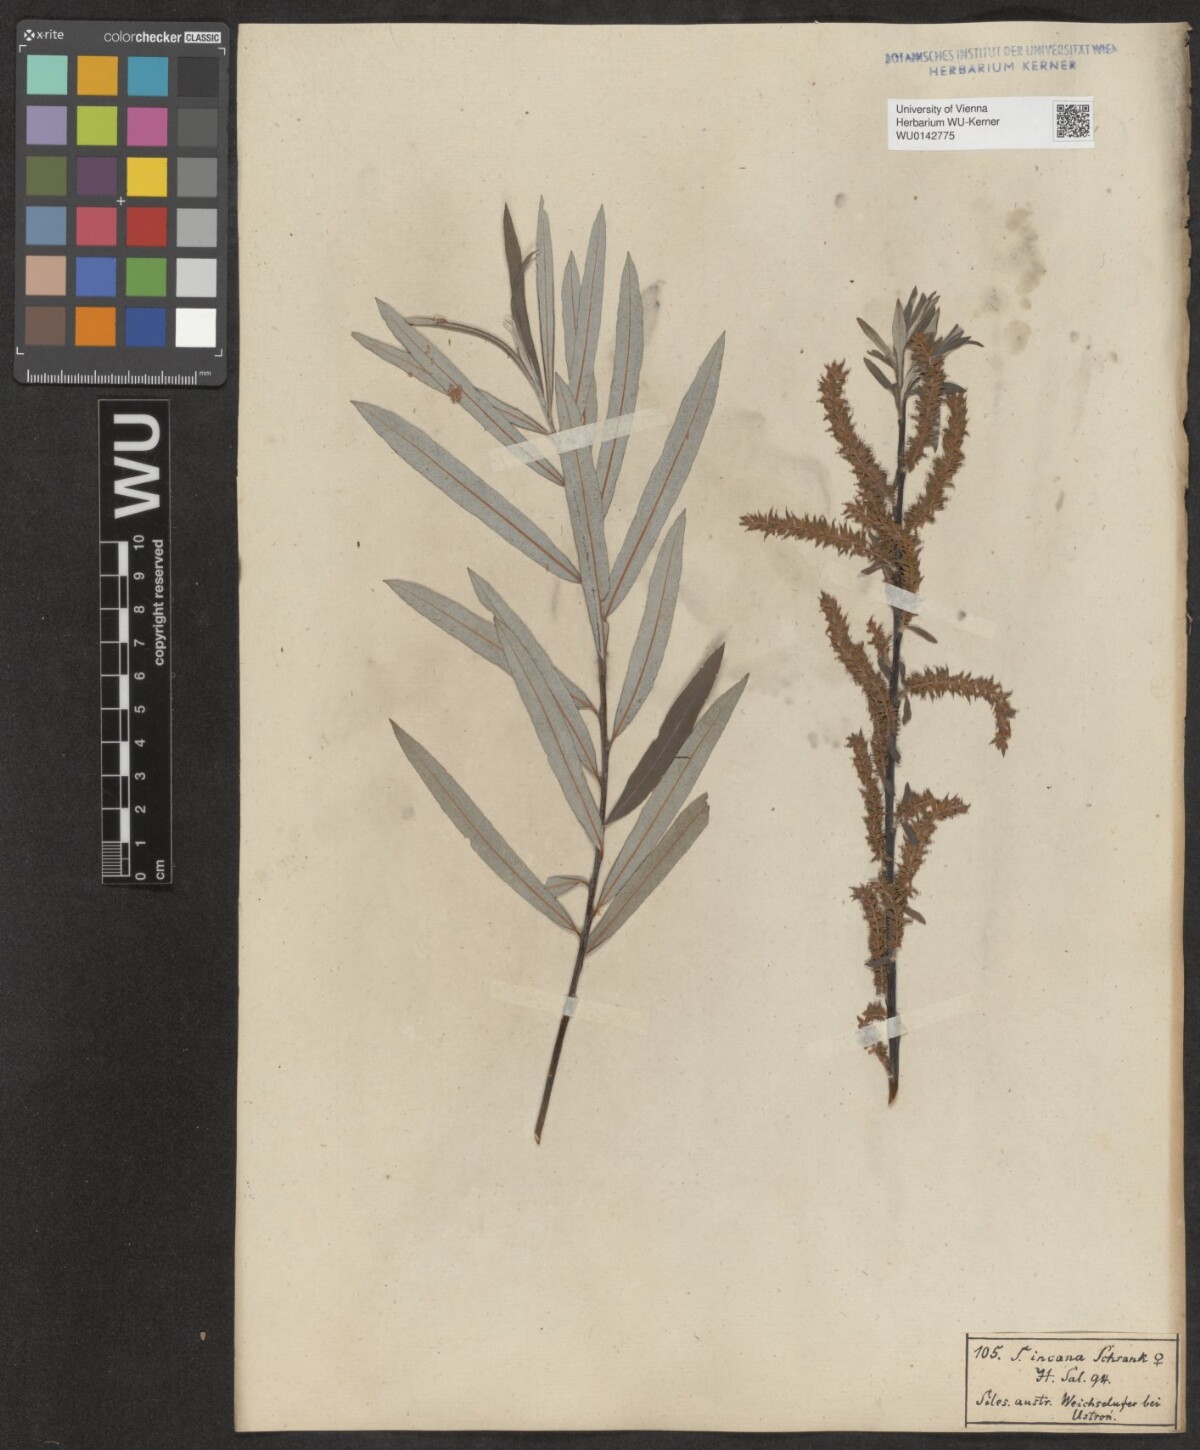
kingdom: Plantae
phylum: Tracheophyta
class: Magnoliopsida
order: Malpighiales
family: Salicaceae
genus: Salix
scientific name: Salix eleagnos
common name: Elaeagnus willow
